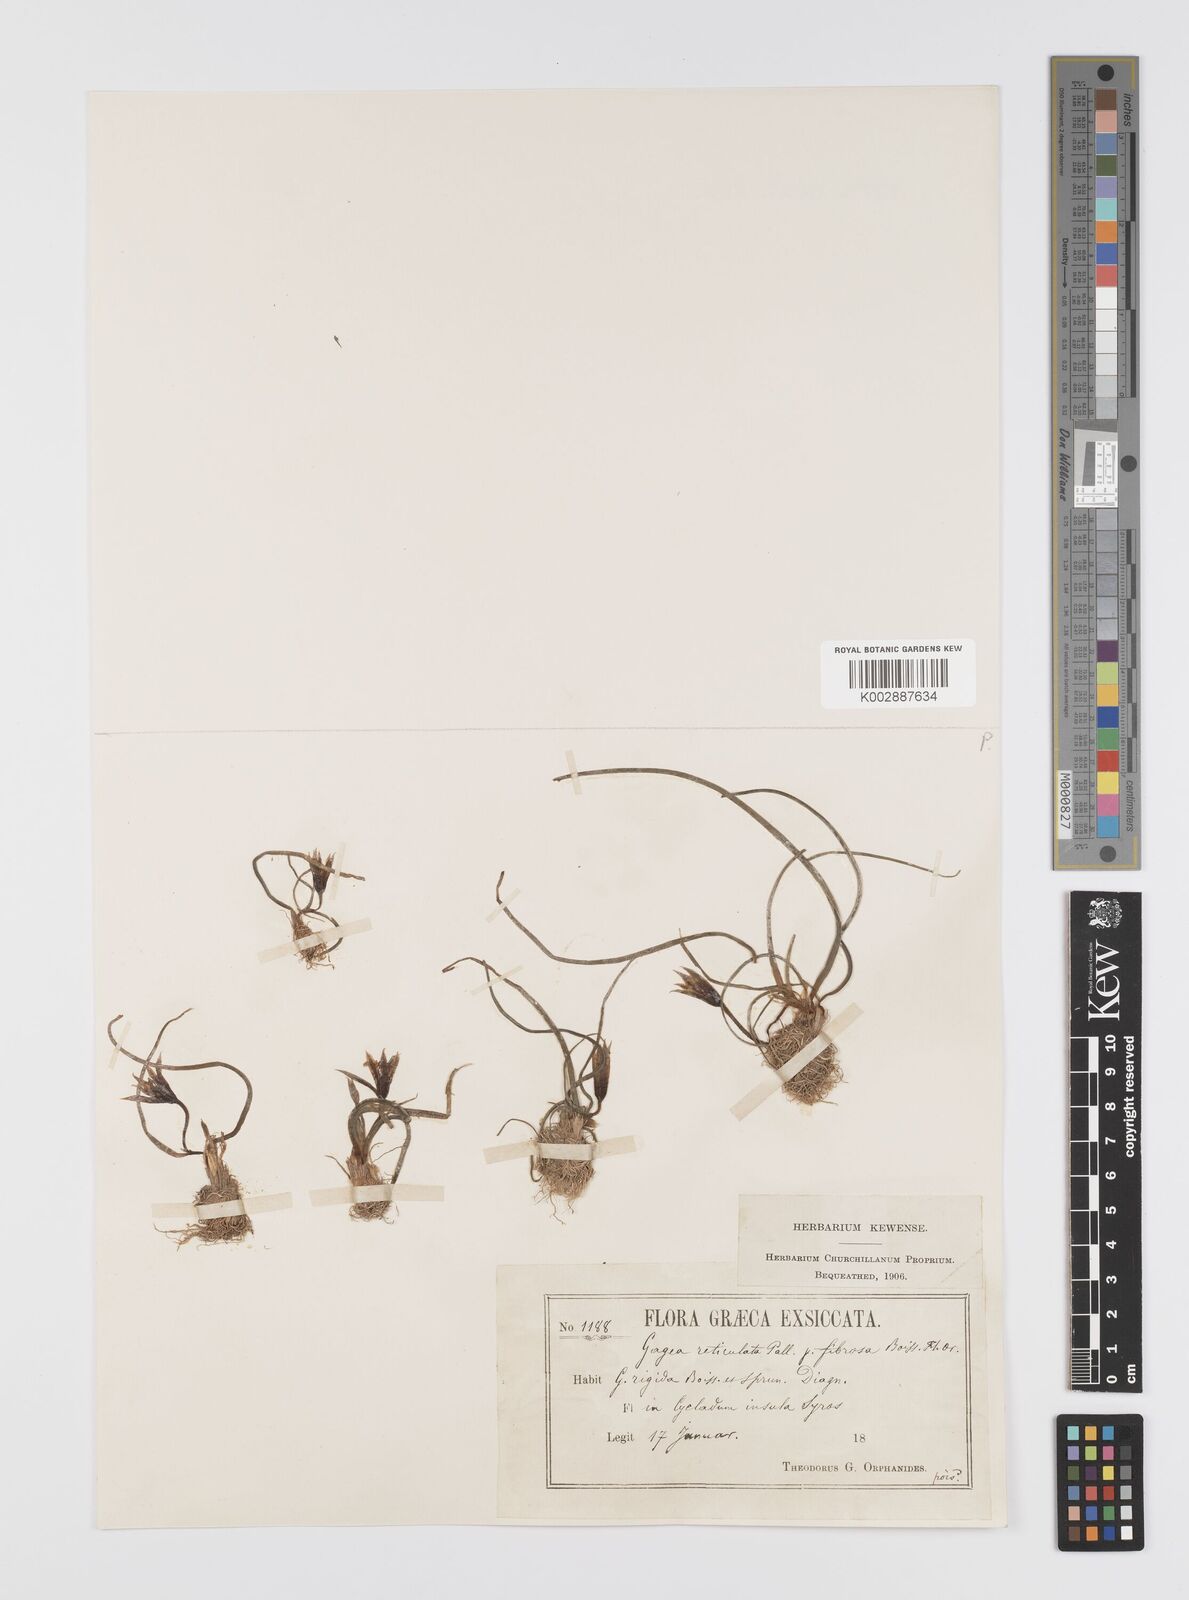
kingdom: Plantae
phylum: Tracheophyta
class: Liliopsida
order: Liliales
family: Liliaceae
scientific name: Liliaceae
